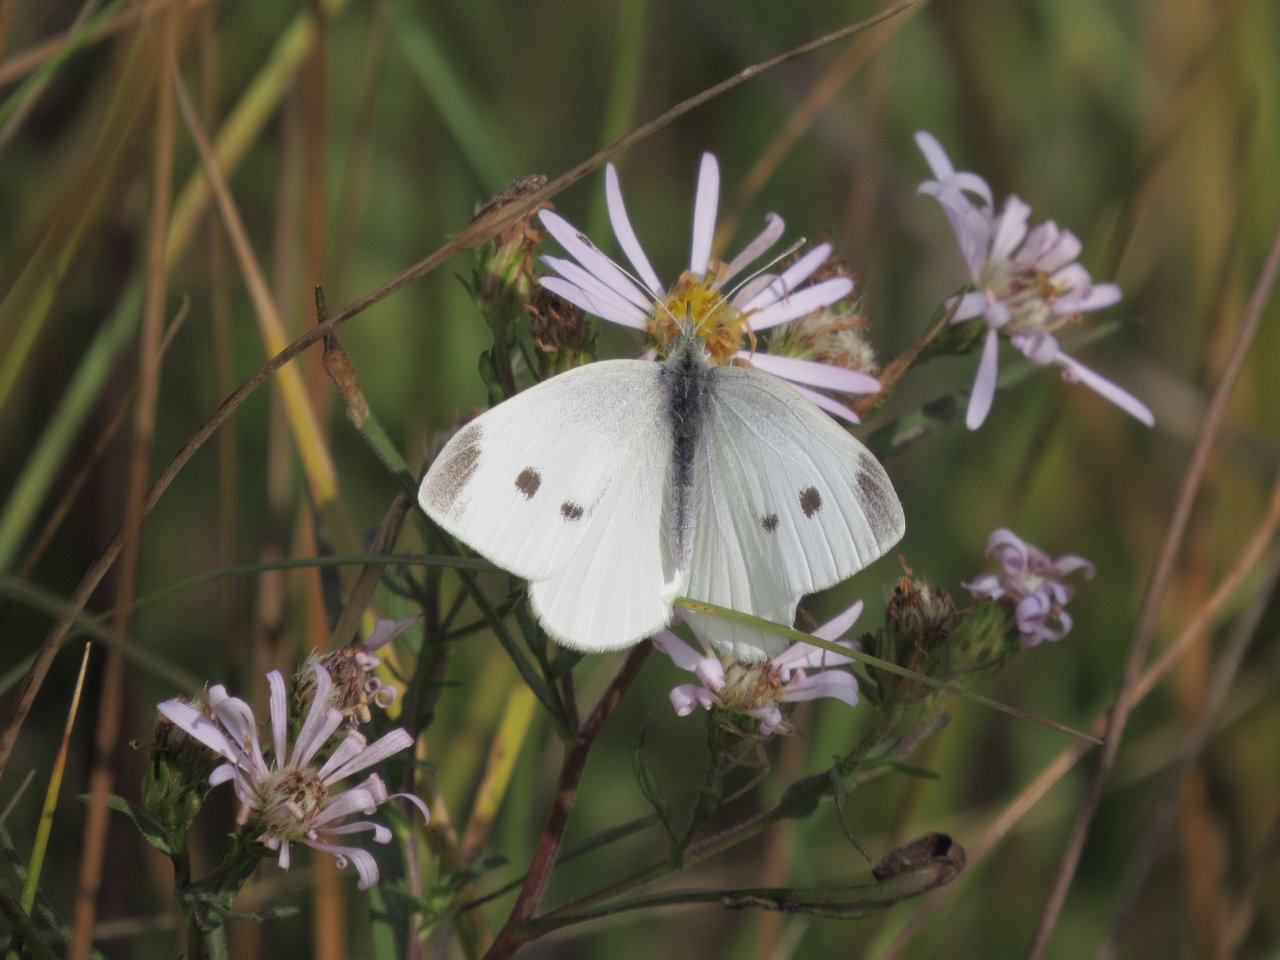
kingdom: Animalia
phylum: Arthropoda
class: Insecta
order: Lepidoptera
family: Pieridae
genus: Pieris
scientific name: Pieris rapae
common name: Cabbage White
